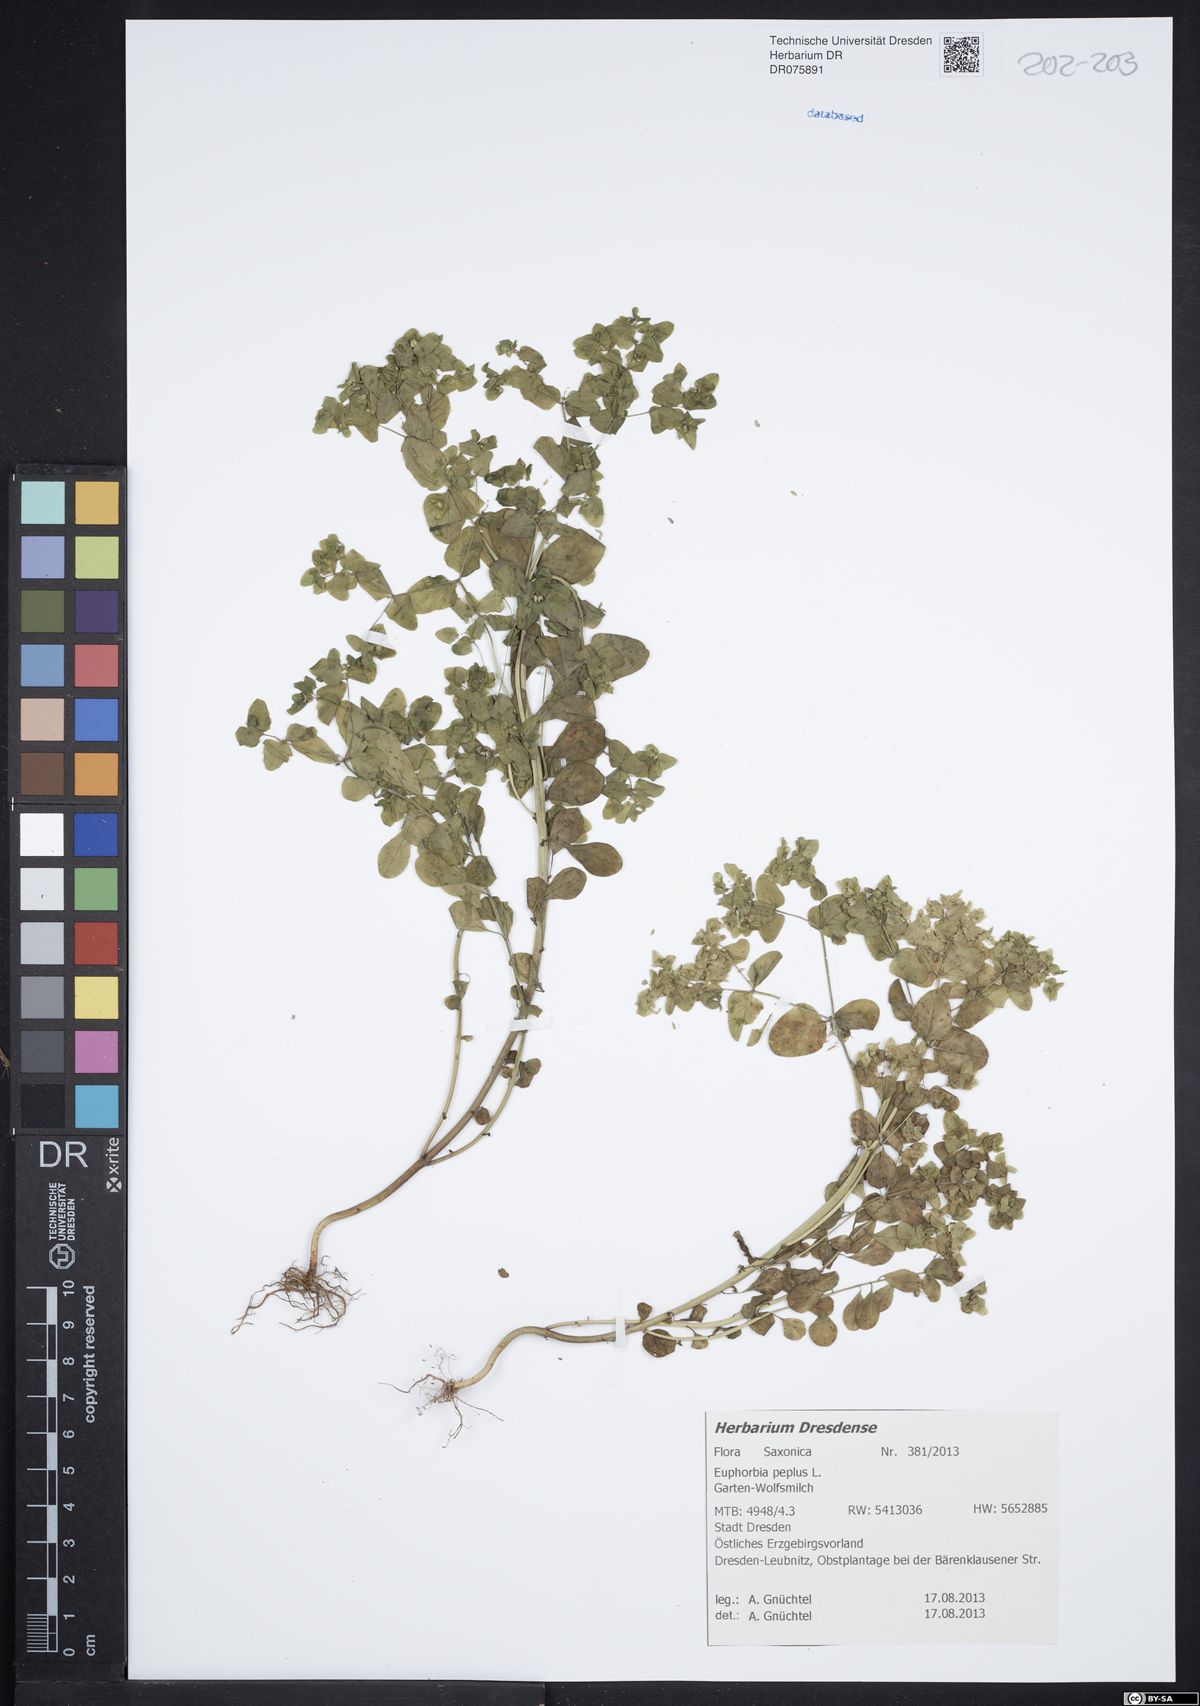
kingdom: Plantae
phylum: Tracheophyta
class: Magnoliopsida
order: Malpighiales
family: Euphorbiaceae
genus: Euphorbia
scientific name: Euphorbia peplus
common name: Petty spurge
